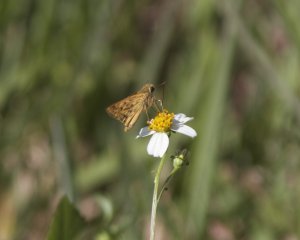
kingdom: Animalia
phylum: Arthropoda
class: Insecta
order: Lepidoptera
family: Hesperiidae
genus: Hylephila
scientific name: Hylephila phyleus
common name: Fiery Skipper
